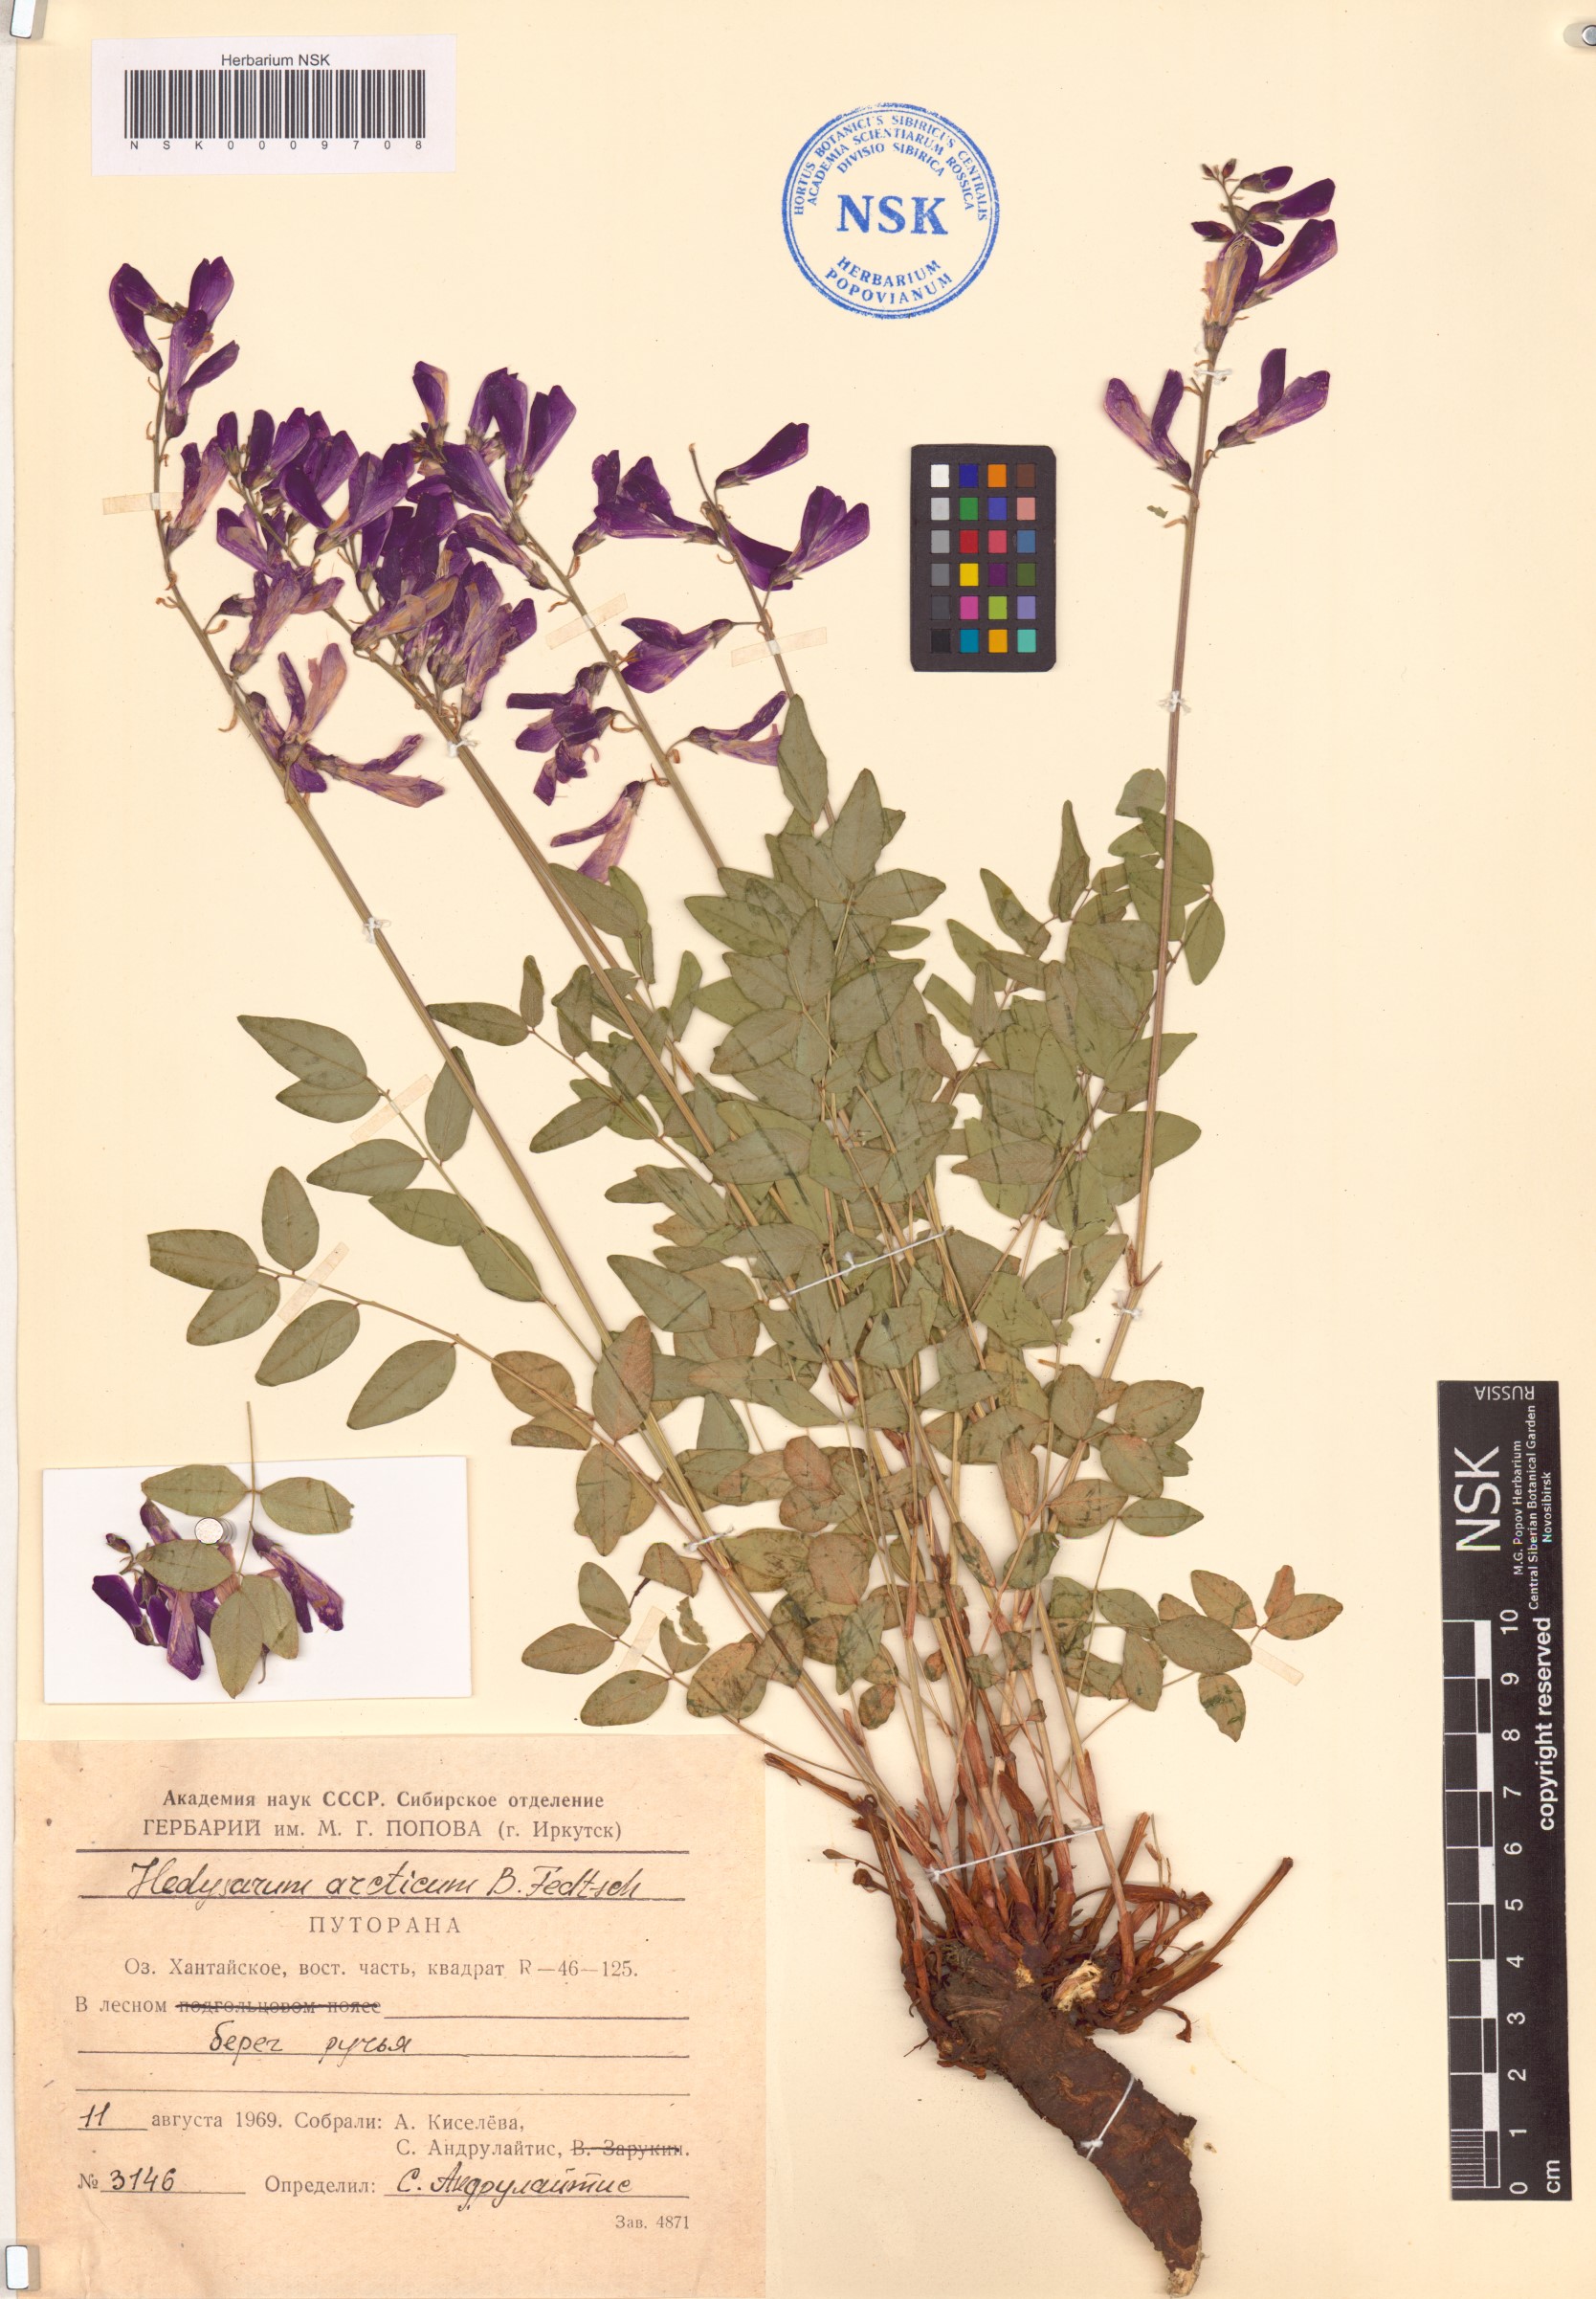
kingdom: Plantae
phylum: Tracheophyta
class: Magnoliopsida
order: Fabales
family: Fabaceae
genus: Hedysarum
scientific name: Hedysarum hedysaroides
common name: Alpine french-honeysuckle
